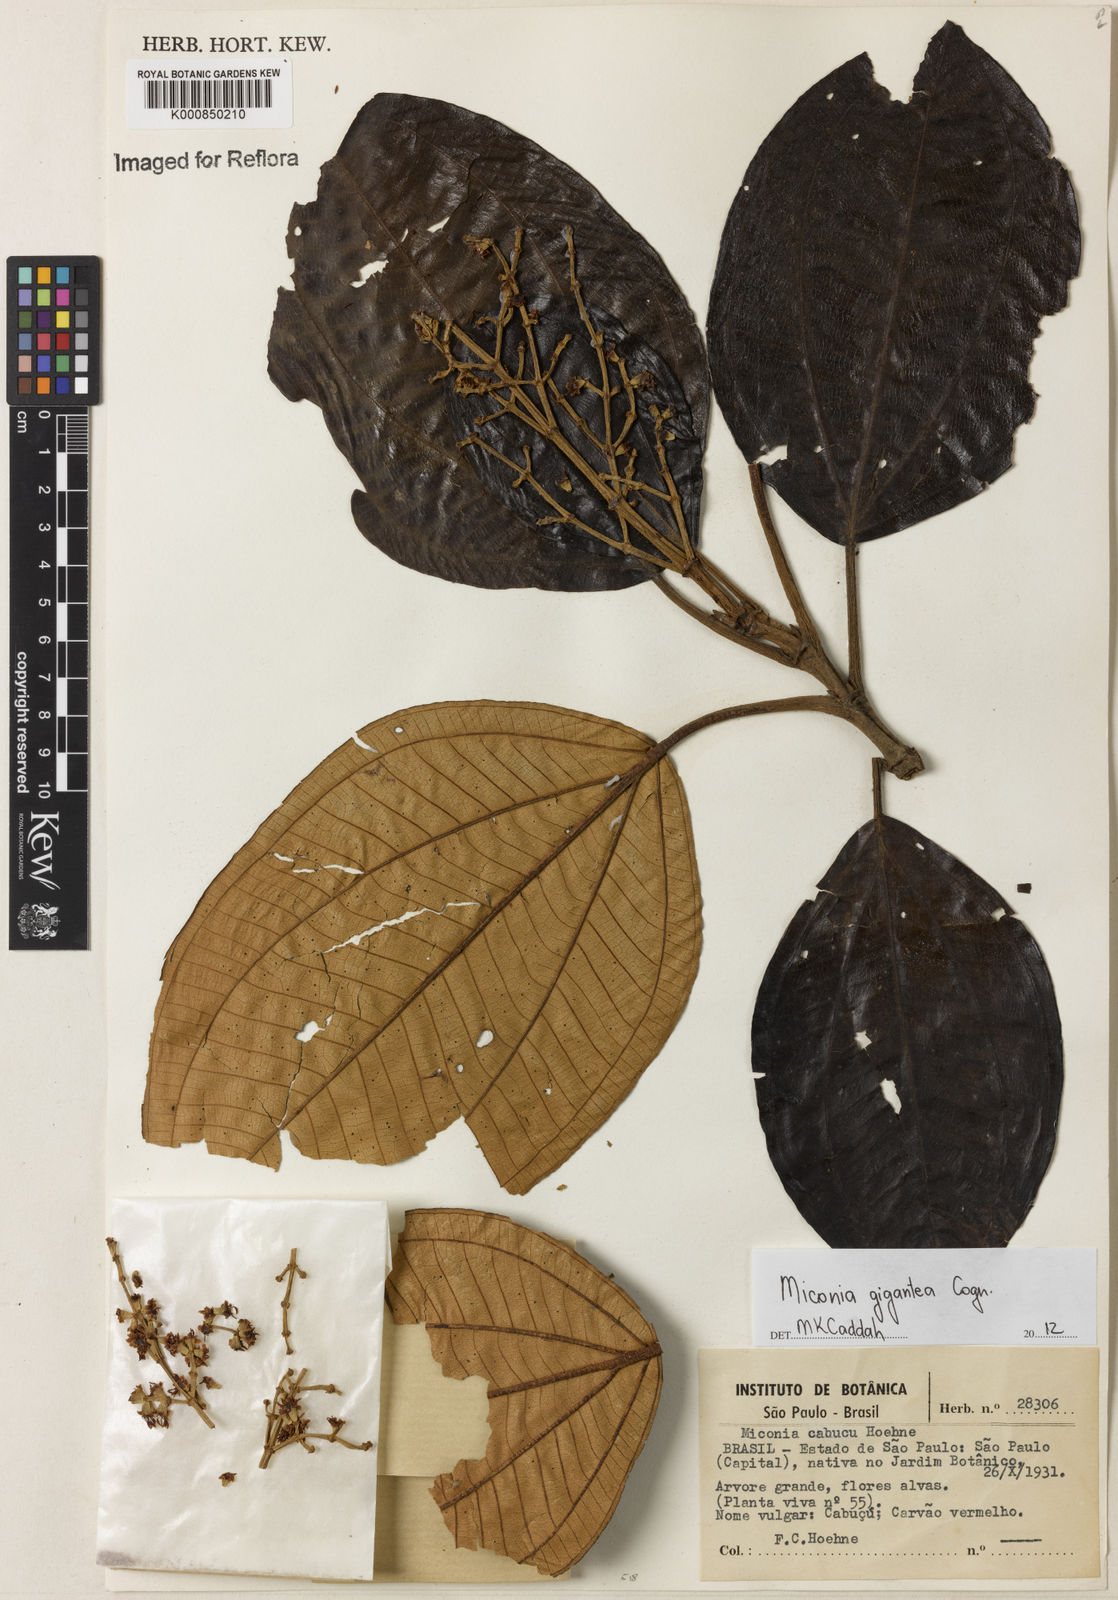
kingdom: Plantae
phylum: Tracheophyta
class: Magnoliopsida
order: Myrtales
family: Melastomataceae
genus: Miconia
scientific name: Miconia formosa
